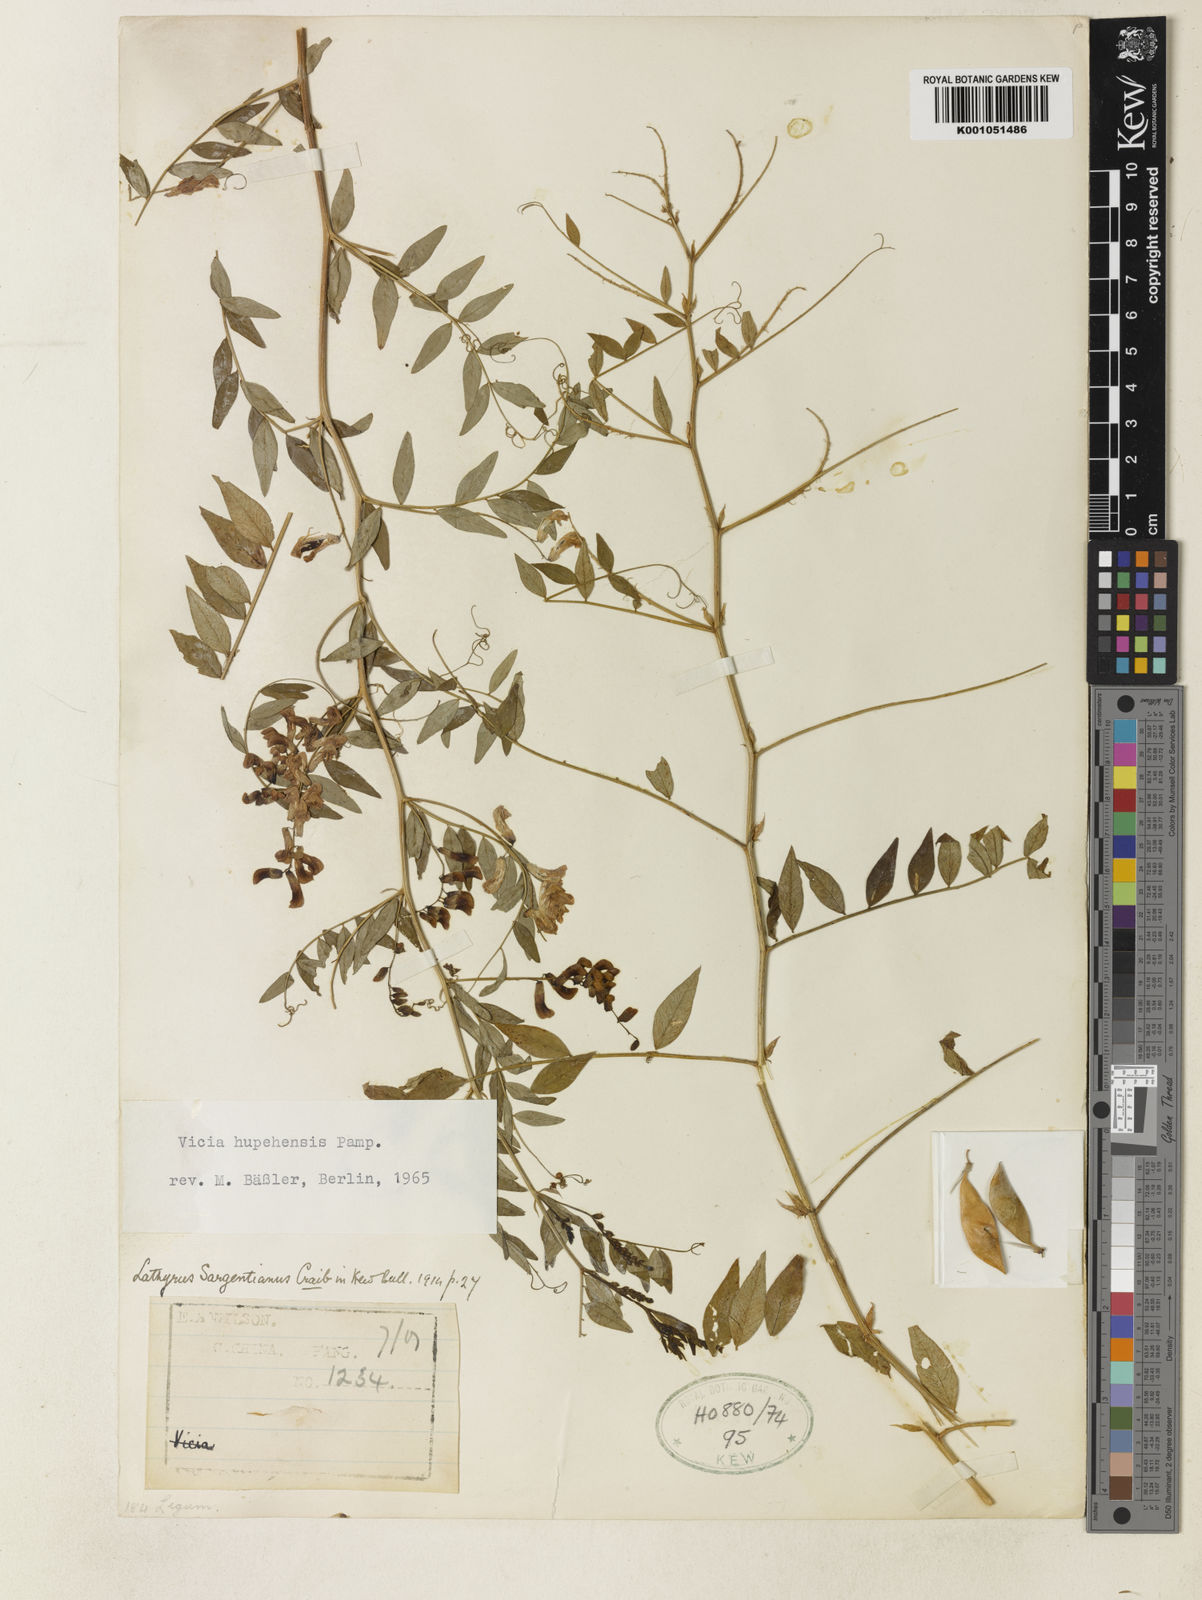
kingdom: Plantae
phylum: Tracheophyta
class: Magnoliopsida
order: Fabales
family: Fabaceae
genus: Vicia
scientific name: Vicia chinensis
